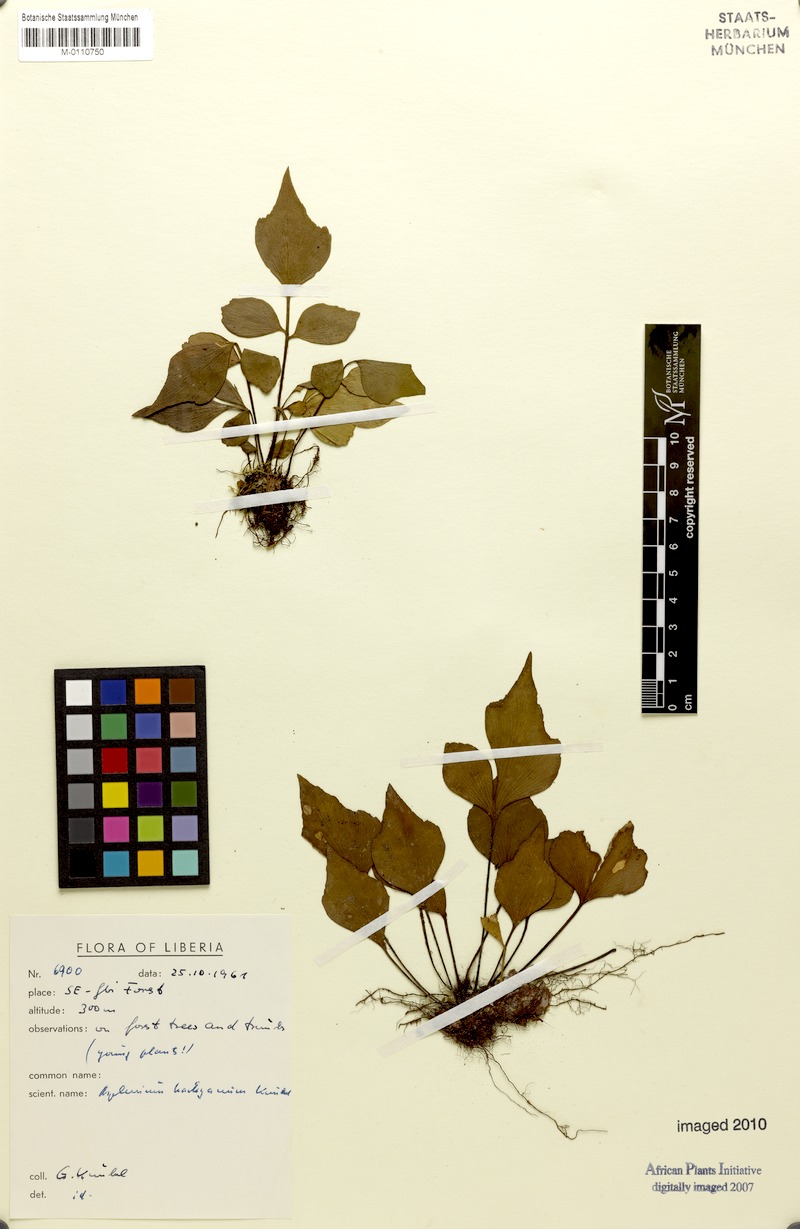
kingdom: Plantae
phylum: Tracheophyta
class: Polypodiopsida
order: Polypodiales
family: Aspleniaceae
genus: Asplenium
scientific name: Asplenium harleyanum
